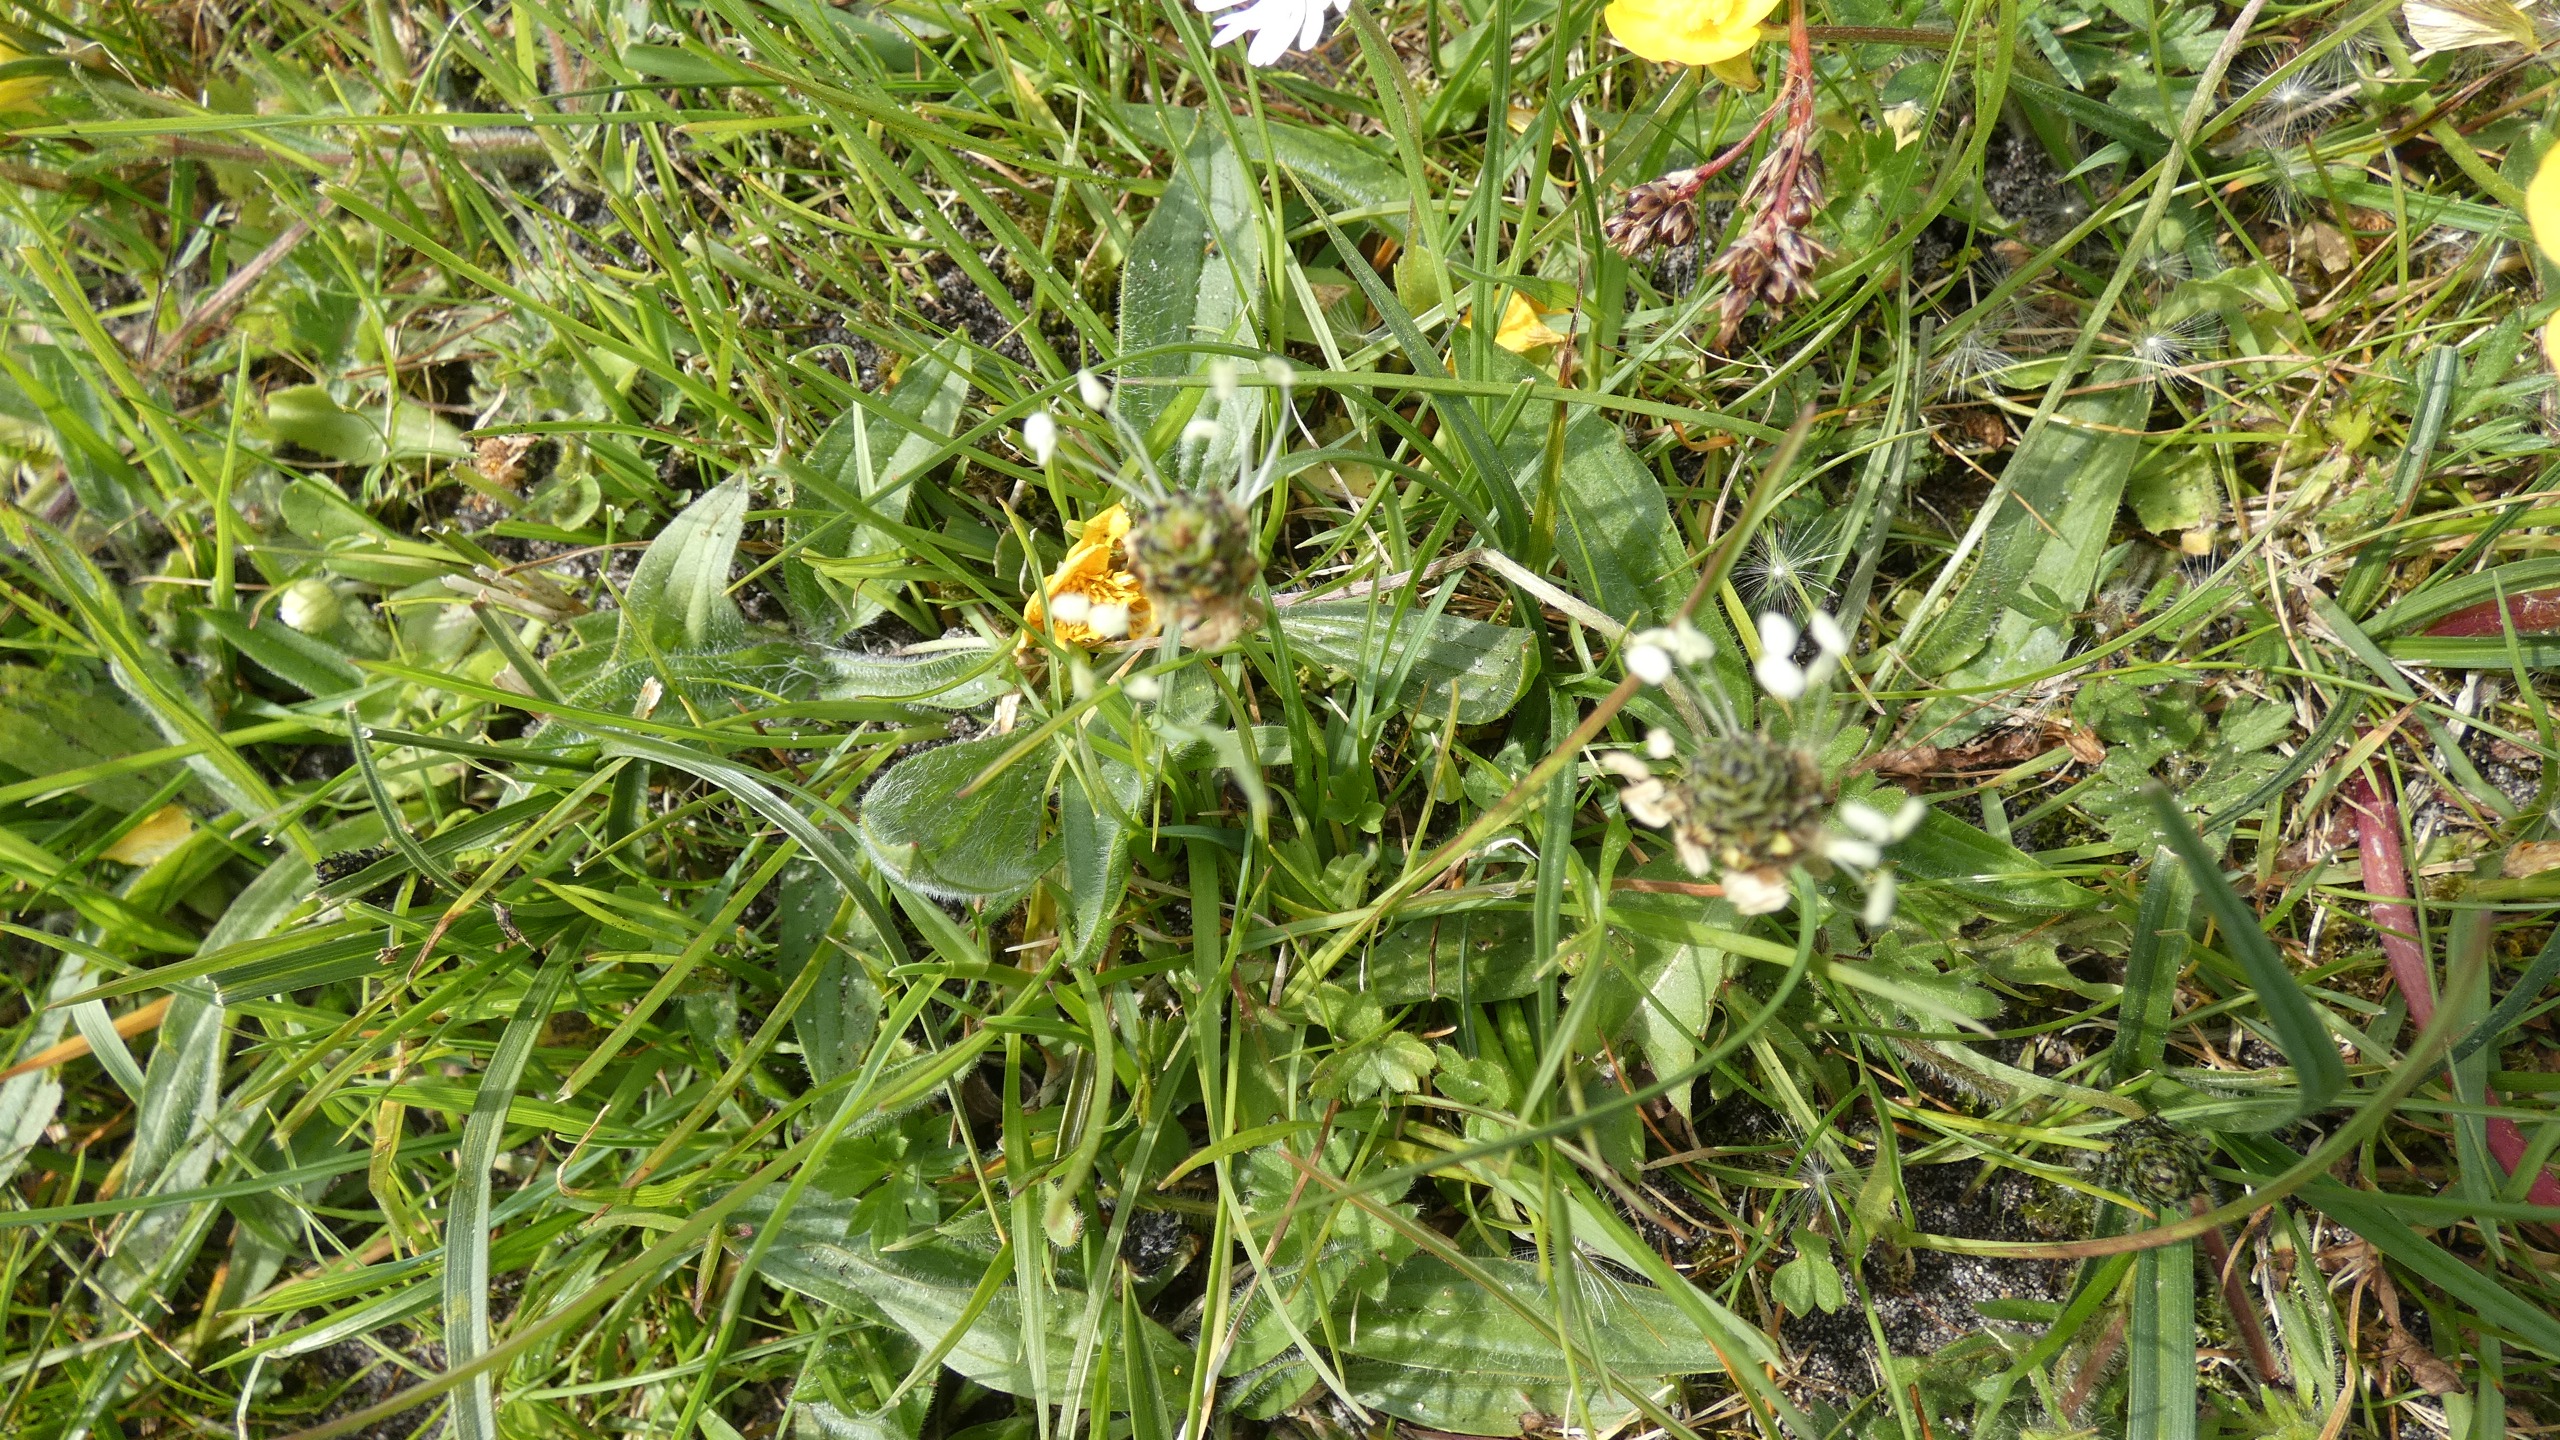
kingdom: Plantae
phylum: Tracheophyta
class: Magnoliopsida
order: Lamiales
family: Plantaginaceae
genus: Plantago
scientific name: Plantago lanceolata
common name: Lancet-vejbred
